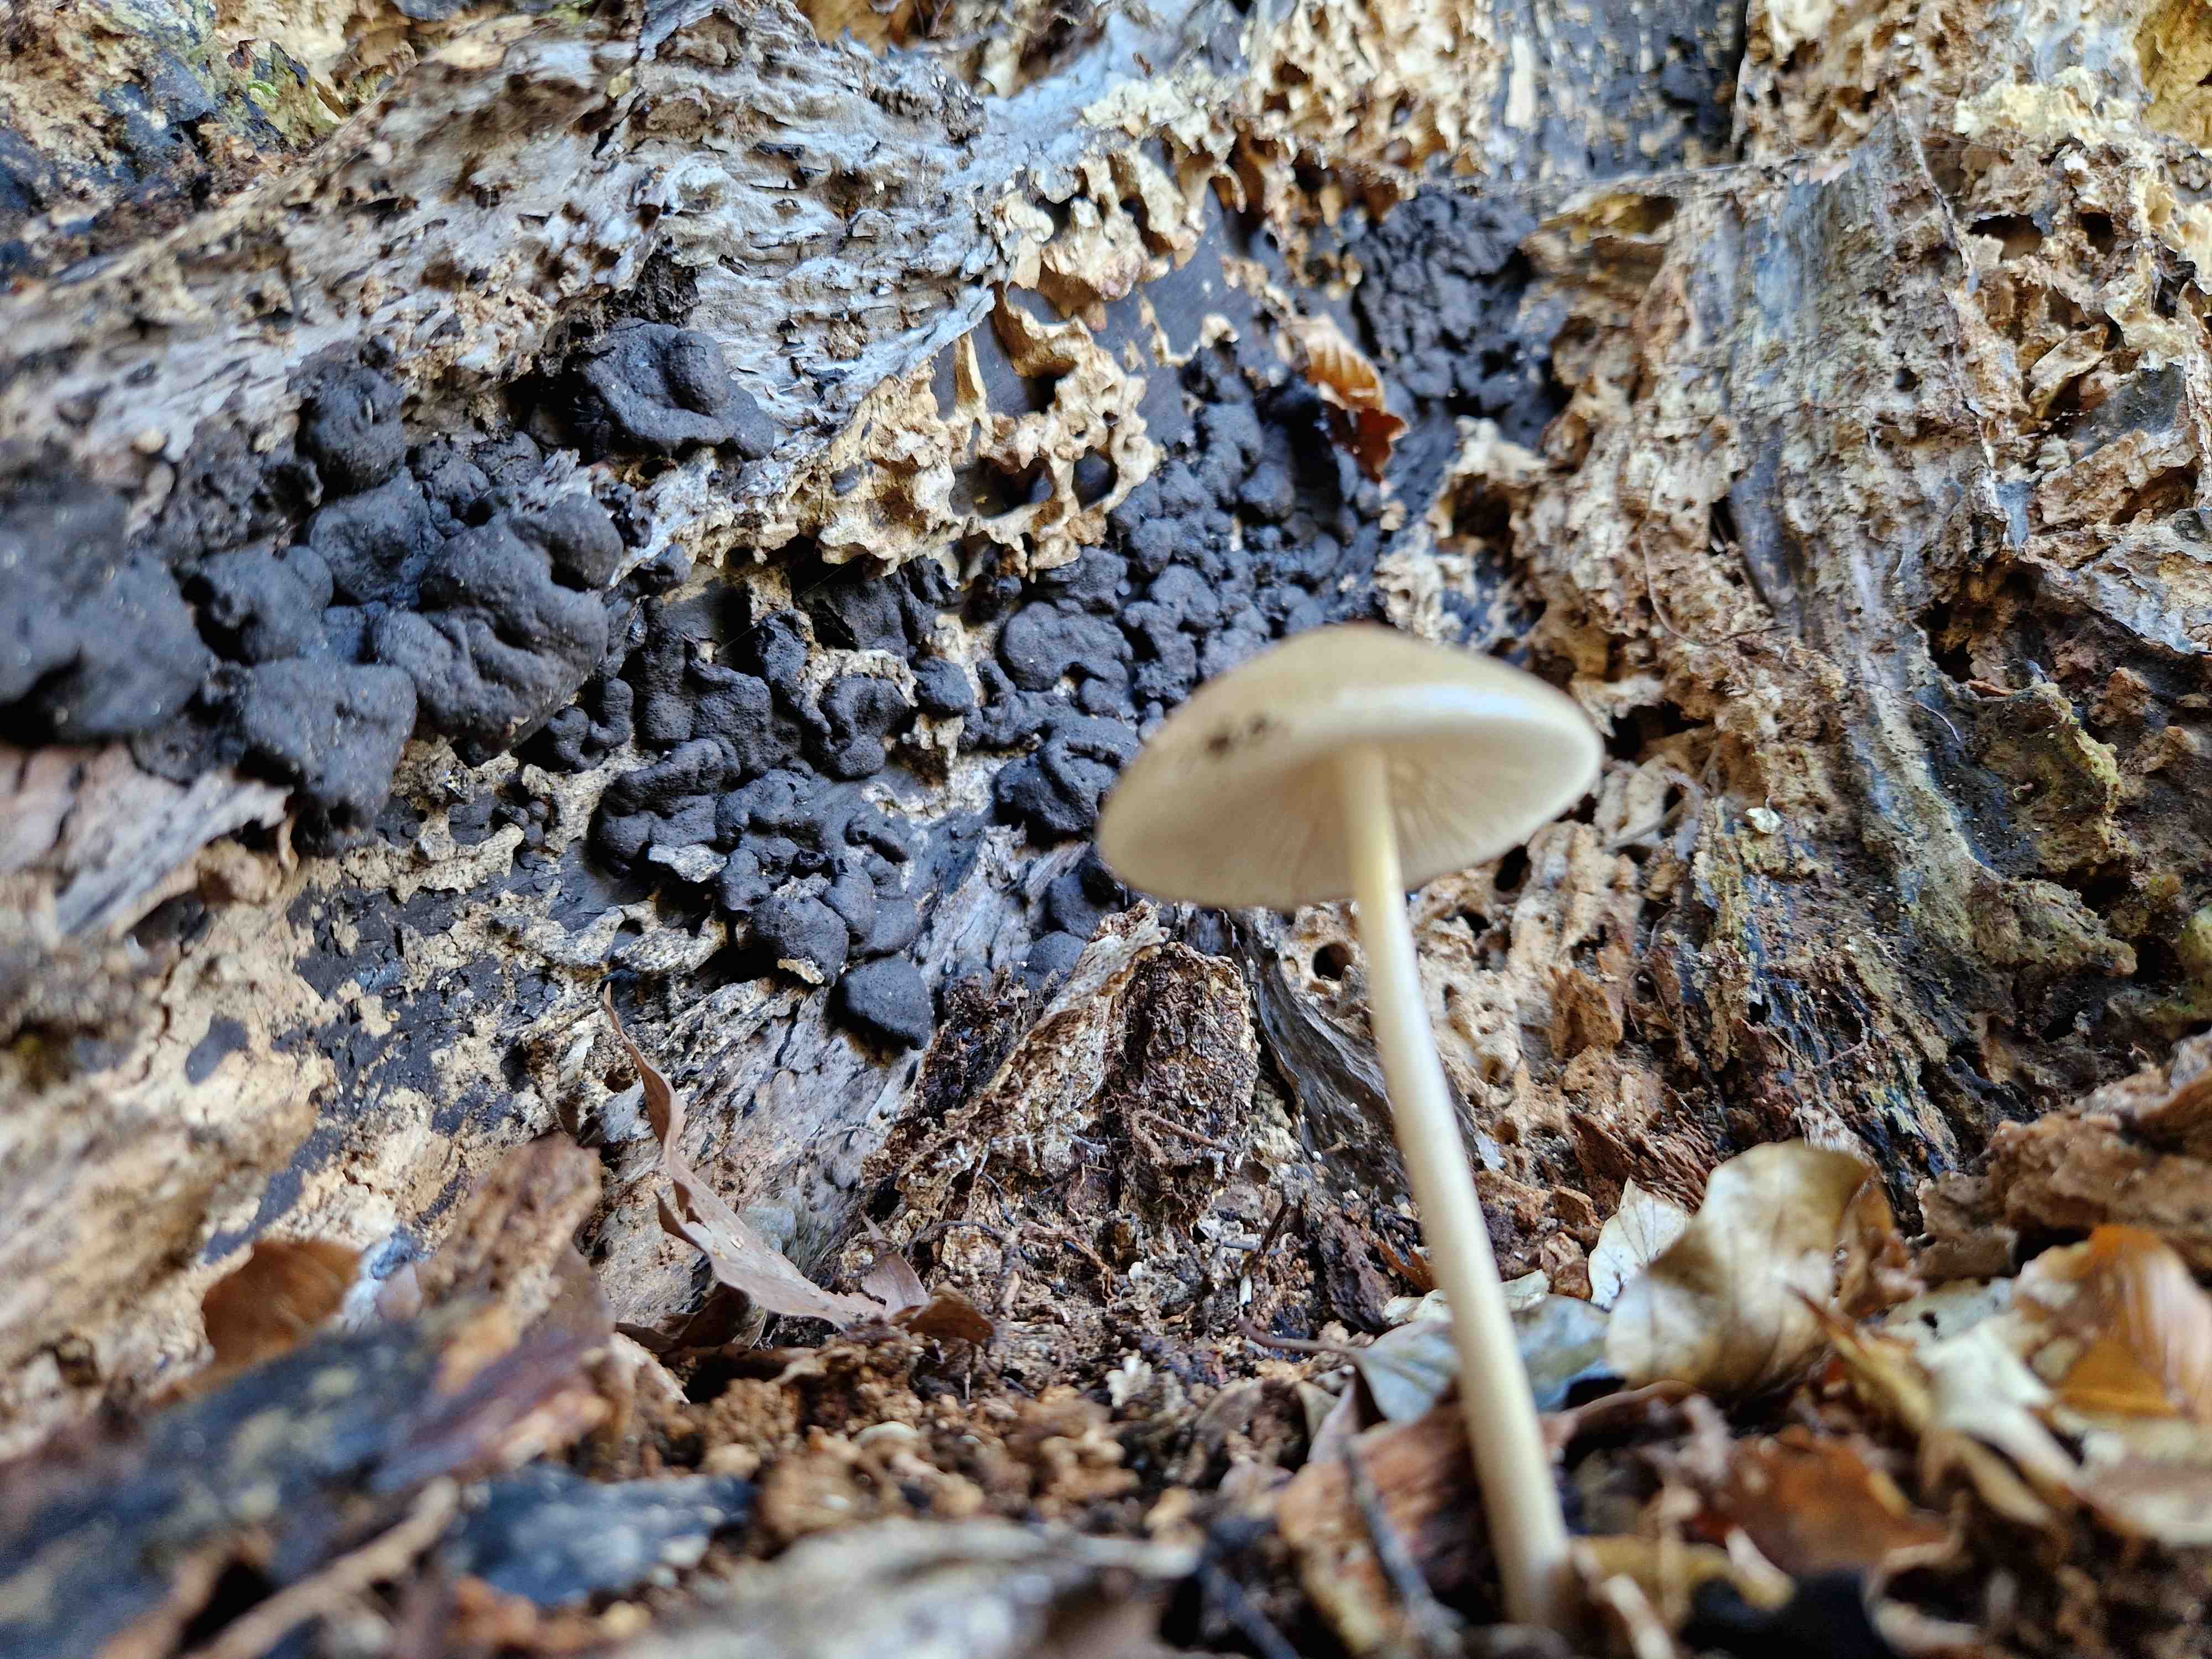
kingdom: Fungi
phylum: Basidiomycota
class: Agaricomycetes
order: Agaricales
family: Physalacriaceae
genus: Hymenopellis
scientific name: Hymenopellis radicata
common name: almindelig pælerodshat
